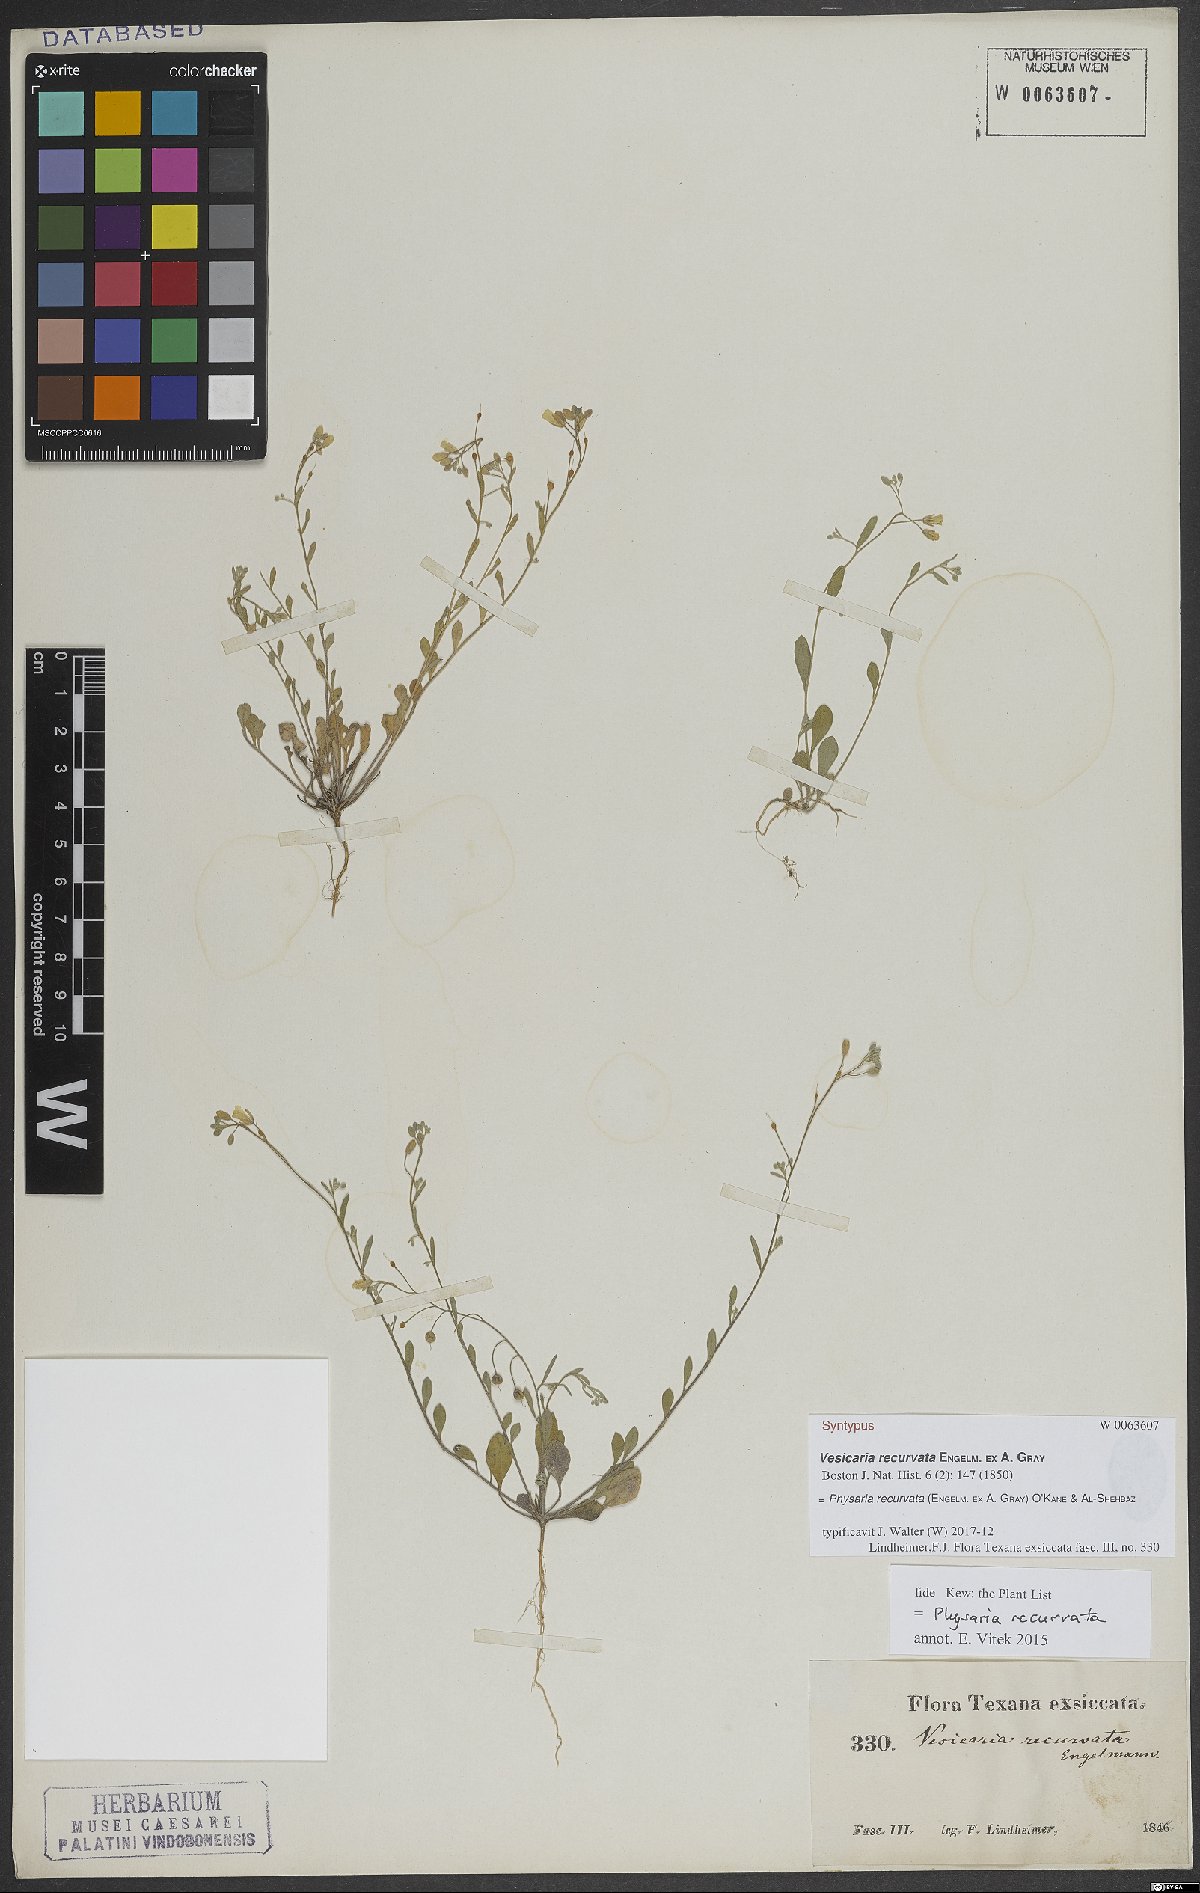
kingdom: Plantae
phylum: Tracheophyta
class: Magnoliopsida
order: Brassicales
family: Brassicaceae
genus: Physaria
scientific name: Physaria recurvata
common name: Gaslight bladderpod
